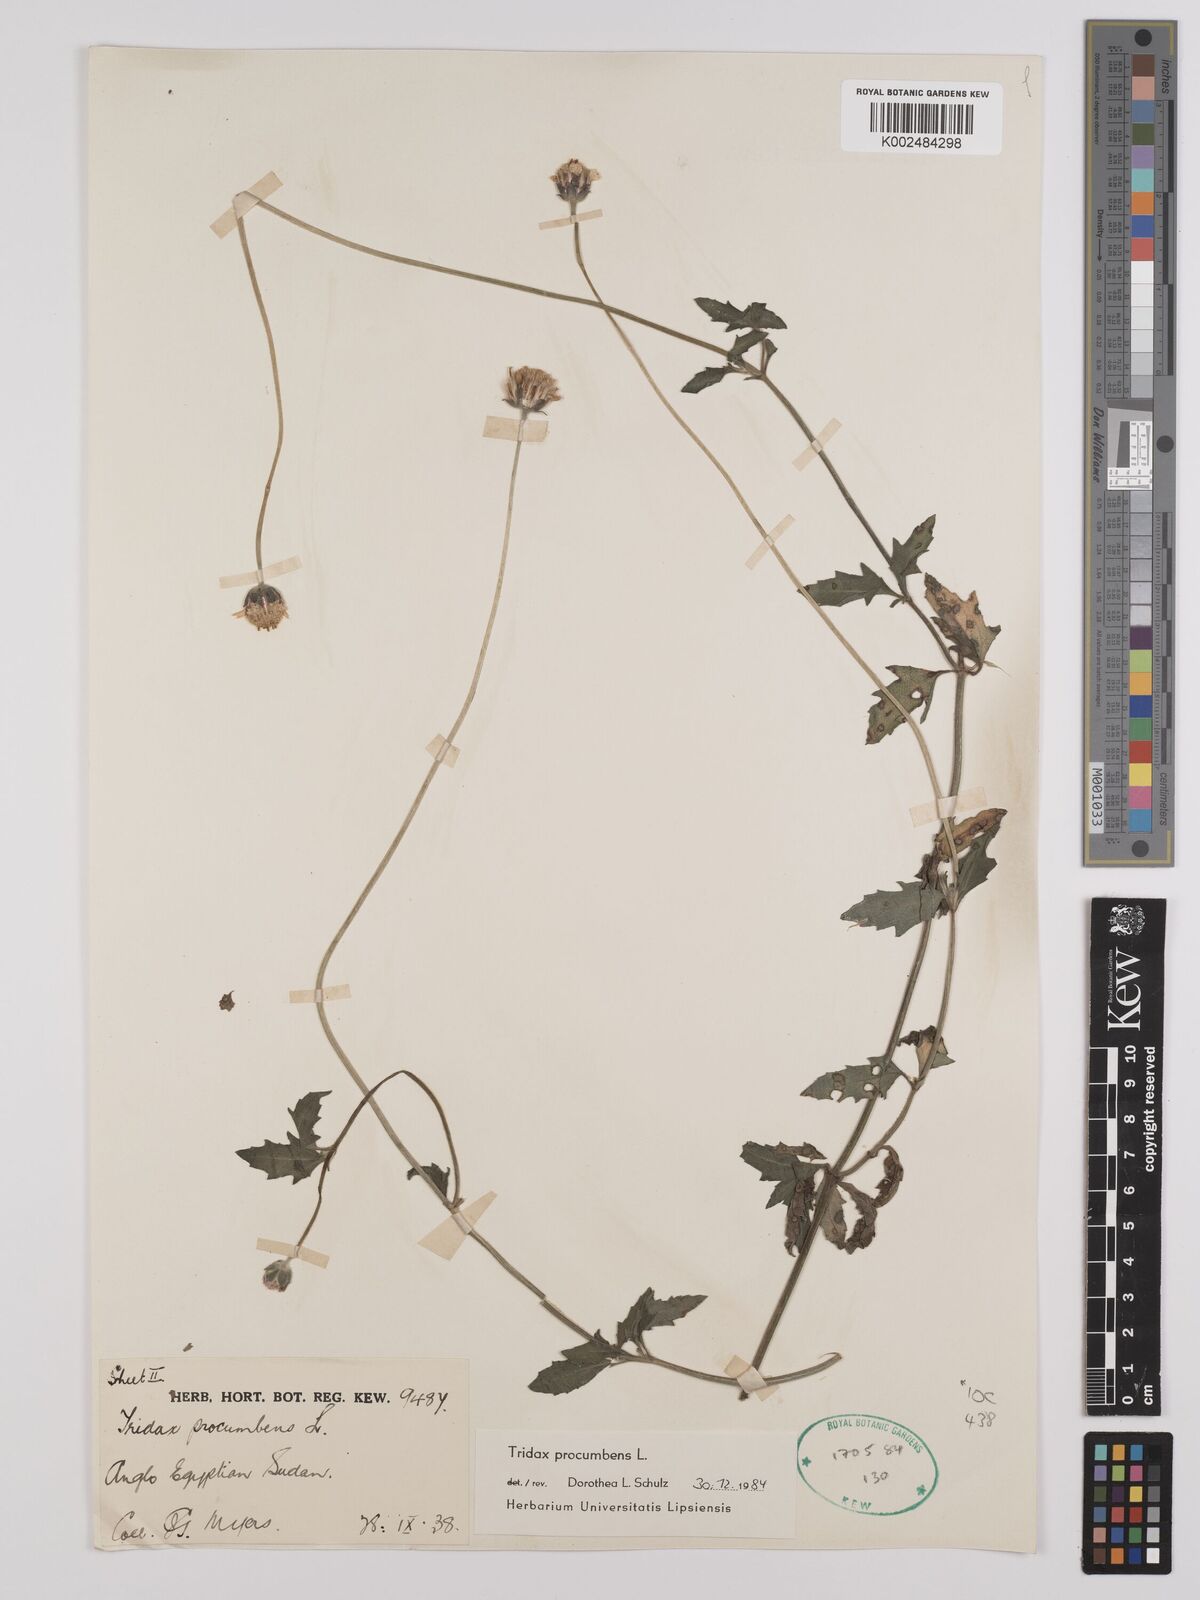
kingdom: Plantae
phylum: Tracheophyta
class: Magnoliopsida
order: Asterales
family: Asteraceae
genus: Tridax
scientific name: Tridax procumbens
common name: Coatbuttons
